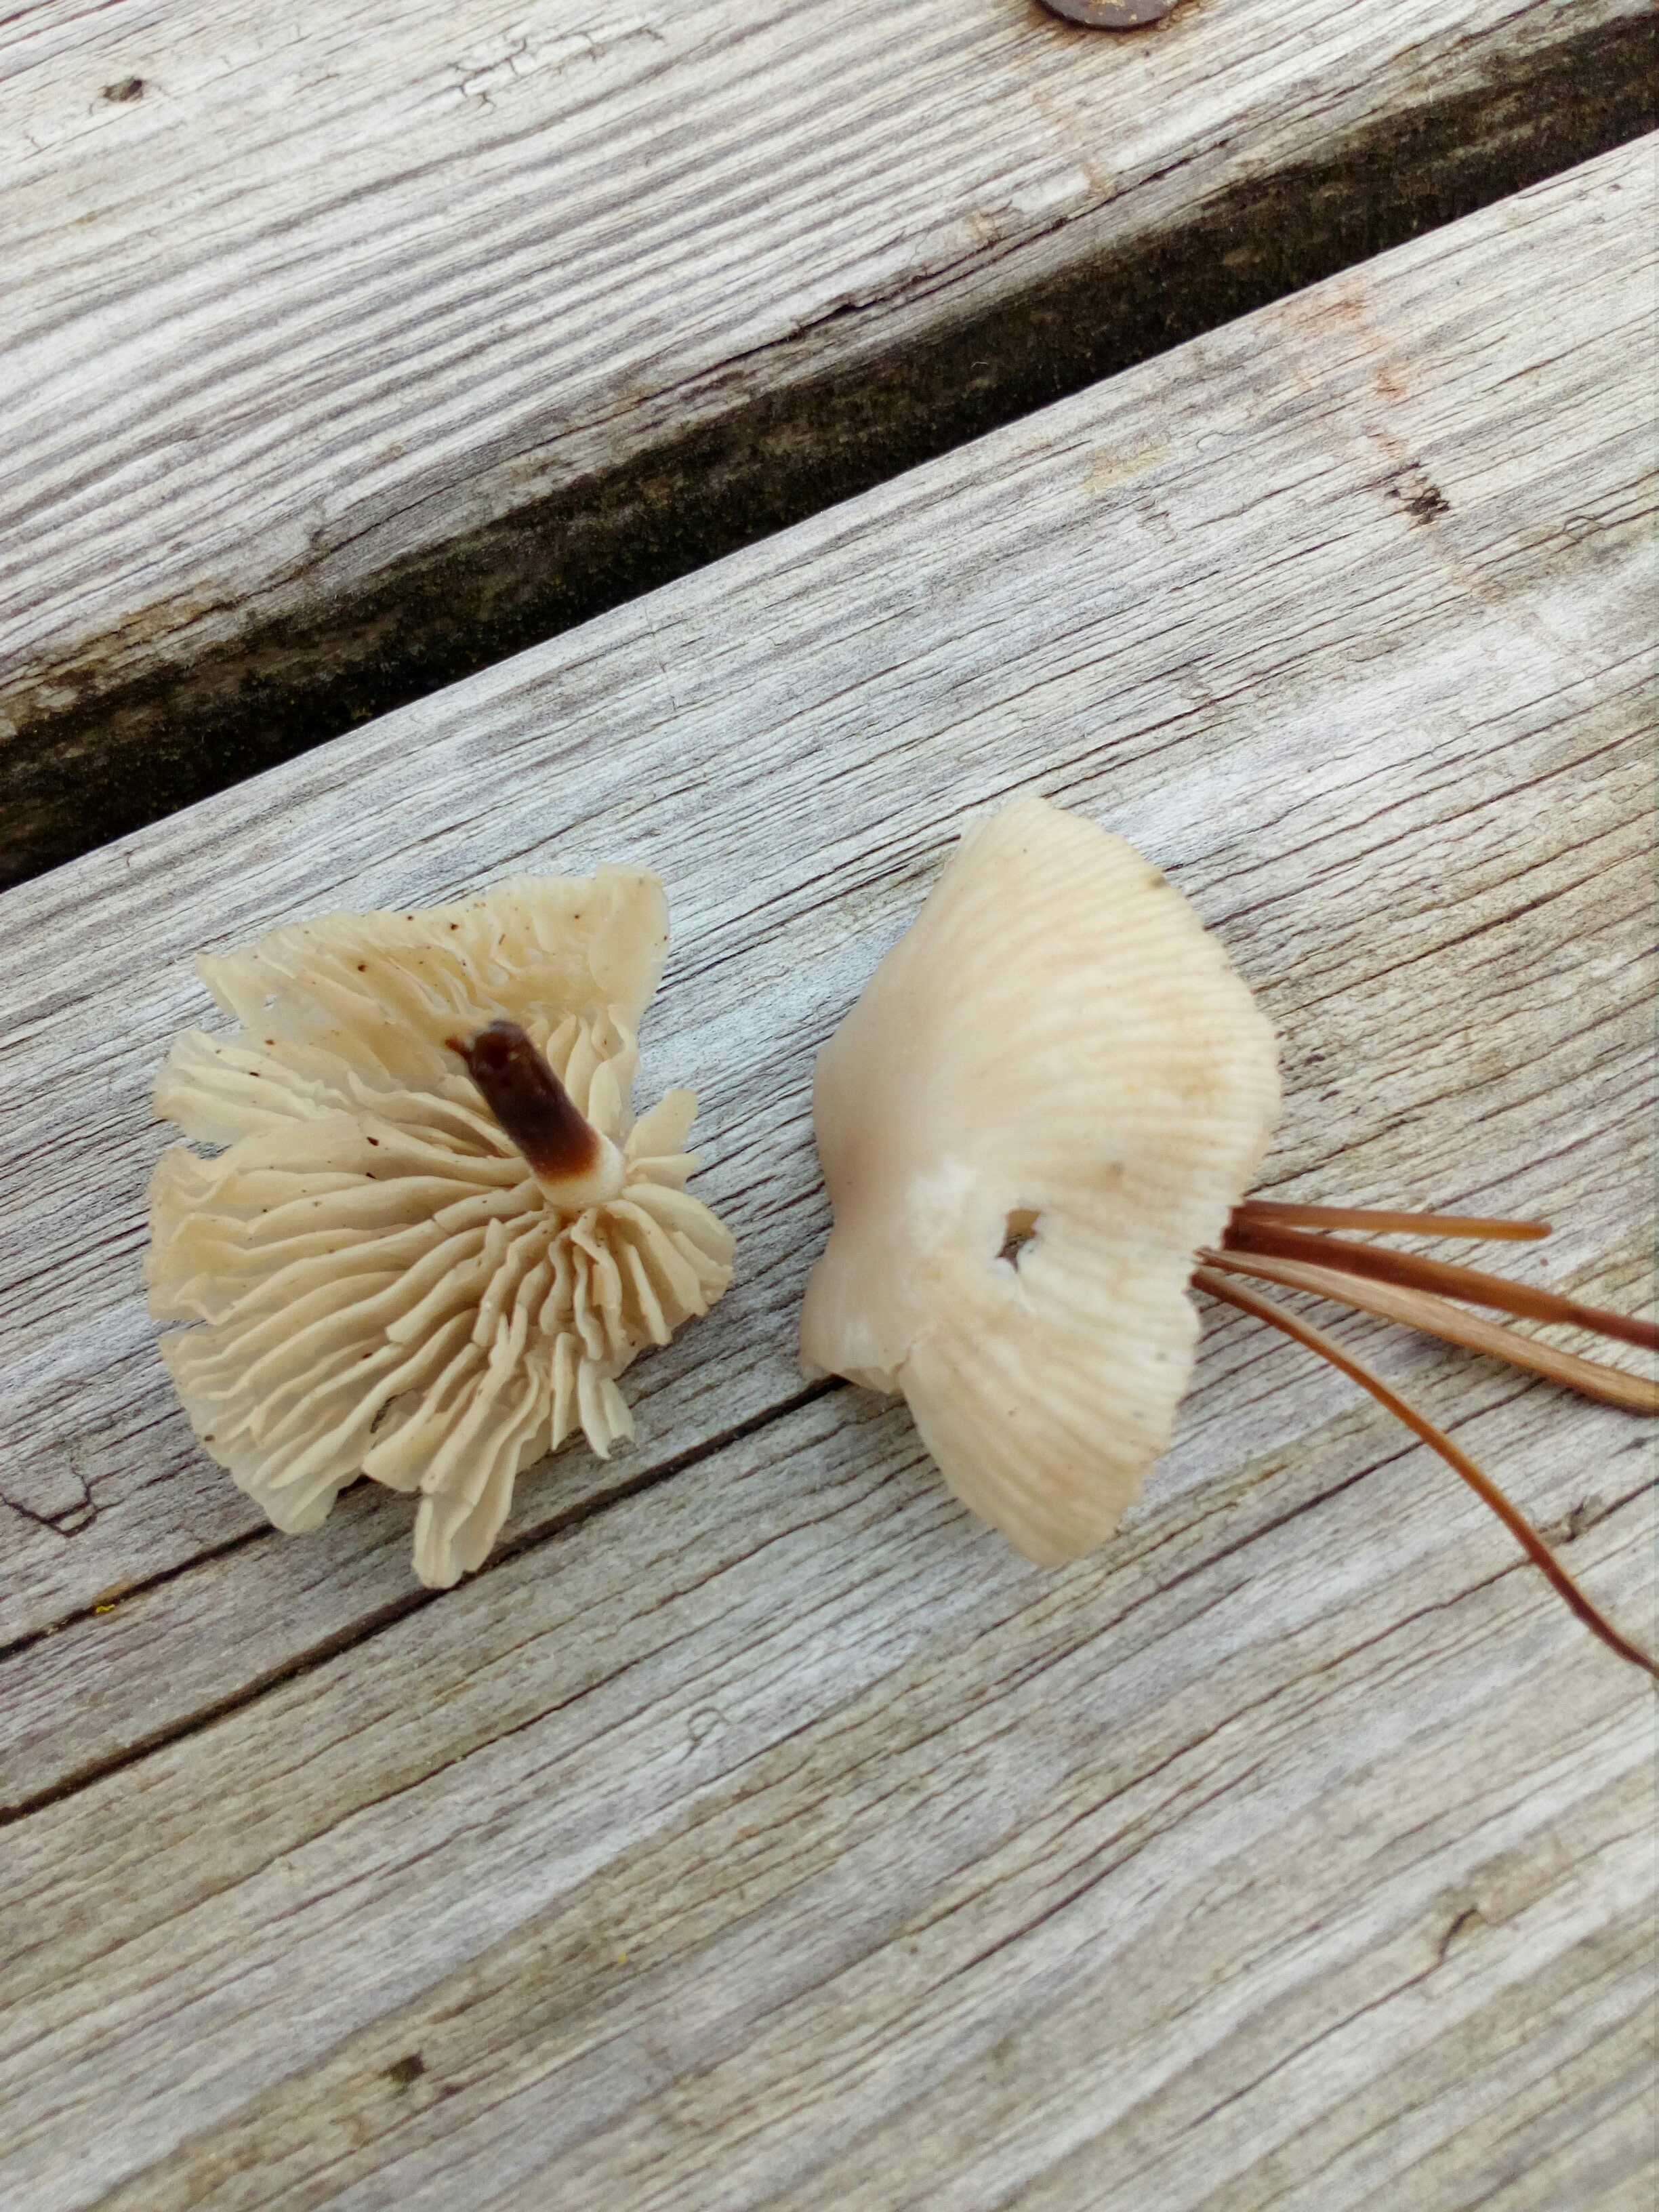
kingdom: Fungi
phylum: Basidiomycota
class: Agaricomycetes
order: Agaricales
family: Marasmiaceae
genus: Marasmius
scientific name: Marasmius wynneae
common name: hvælvet bruskhat
